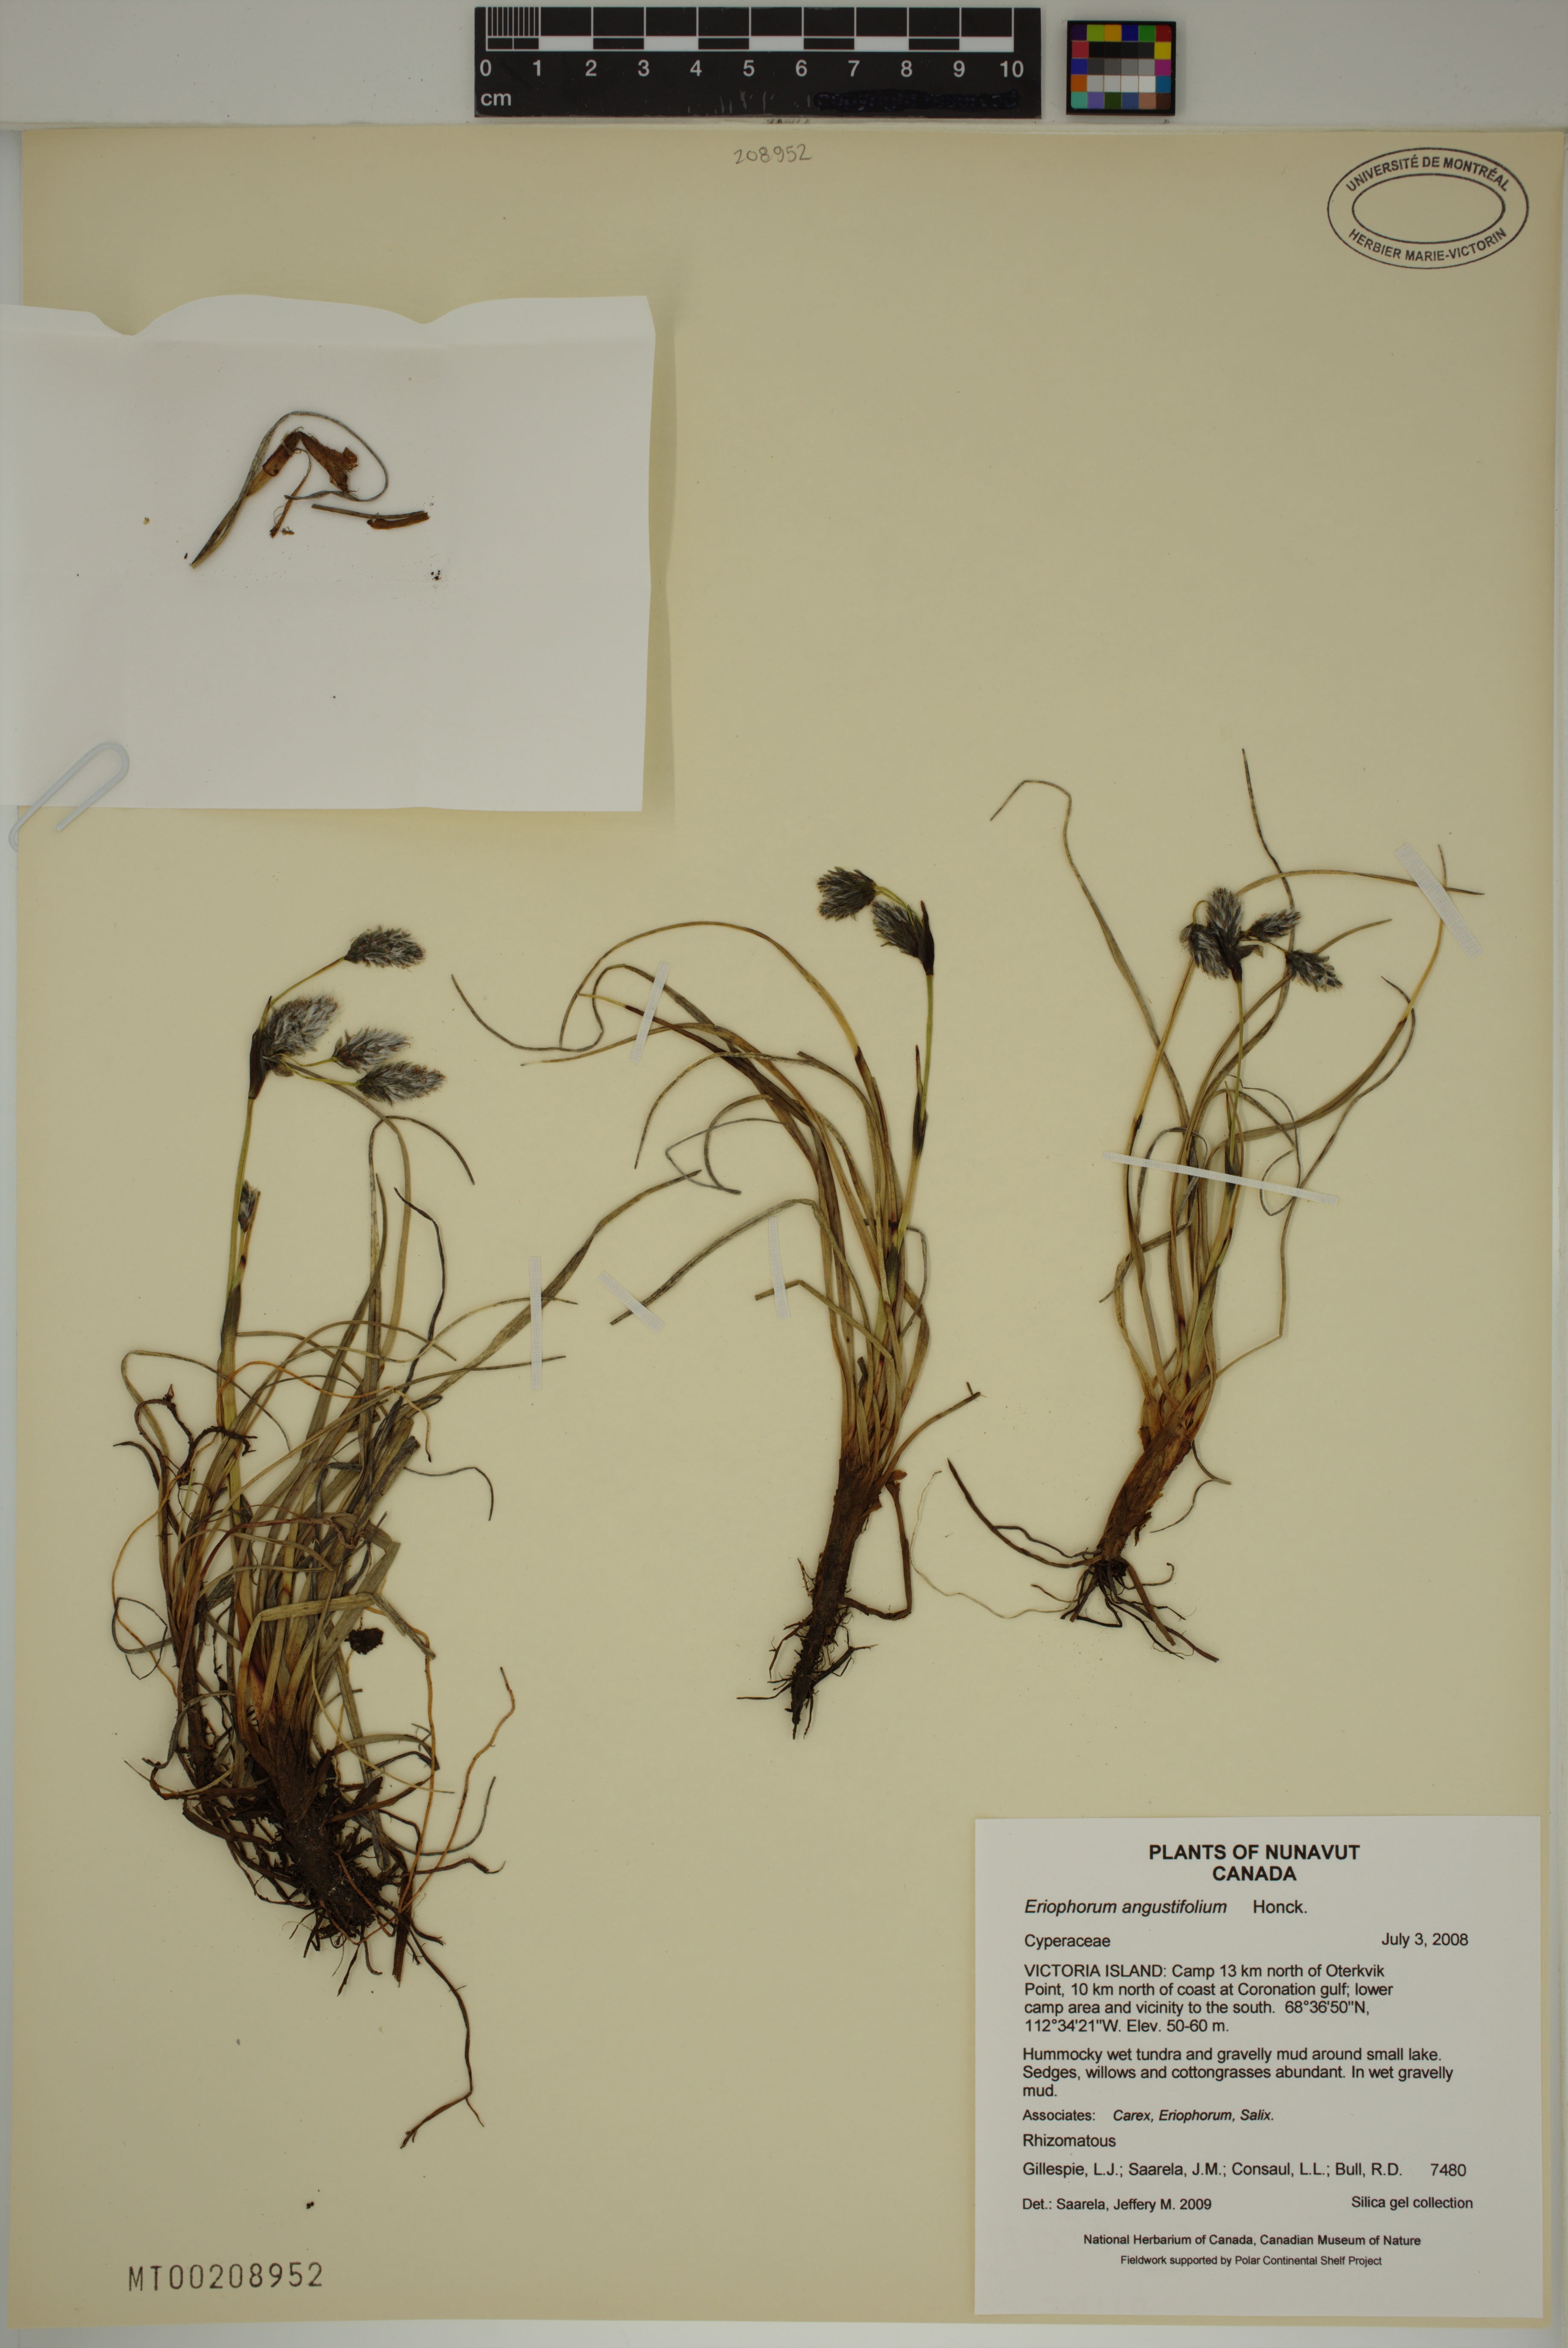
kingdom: Plantae
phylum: Tracheophyta
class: Liliopsida
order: Poales
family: Cyperaceae
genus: Eriophorum
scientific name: Eriophorum angustifolium
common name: Common cottongrass
